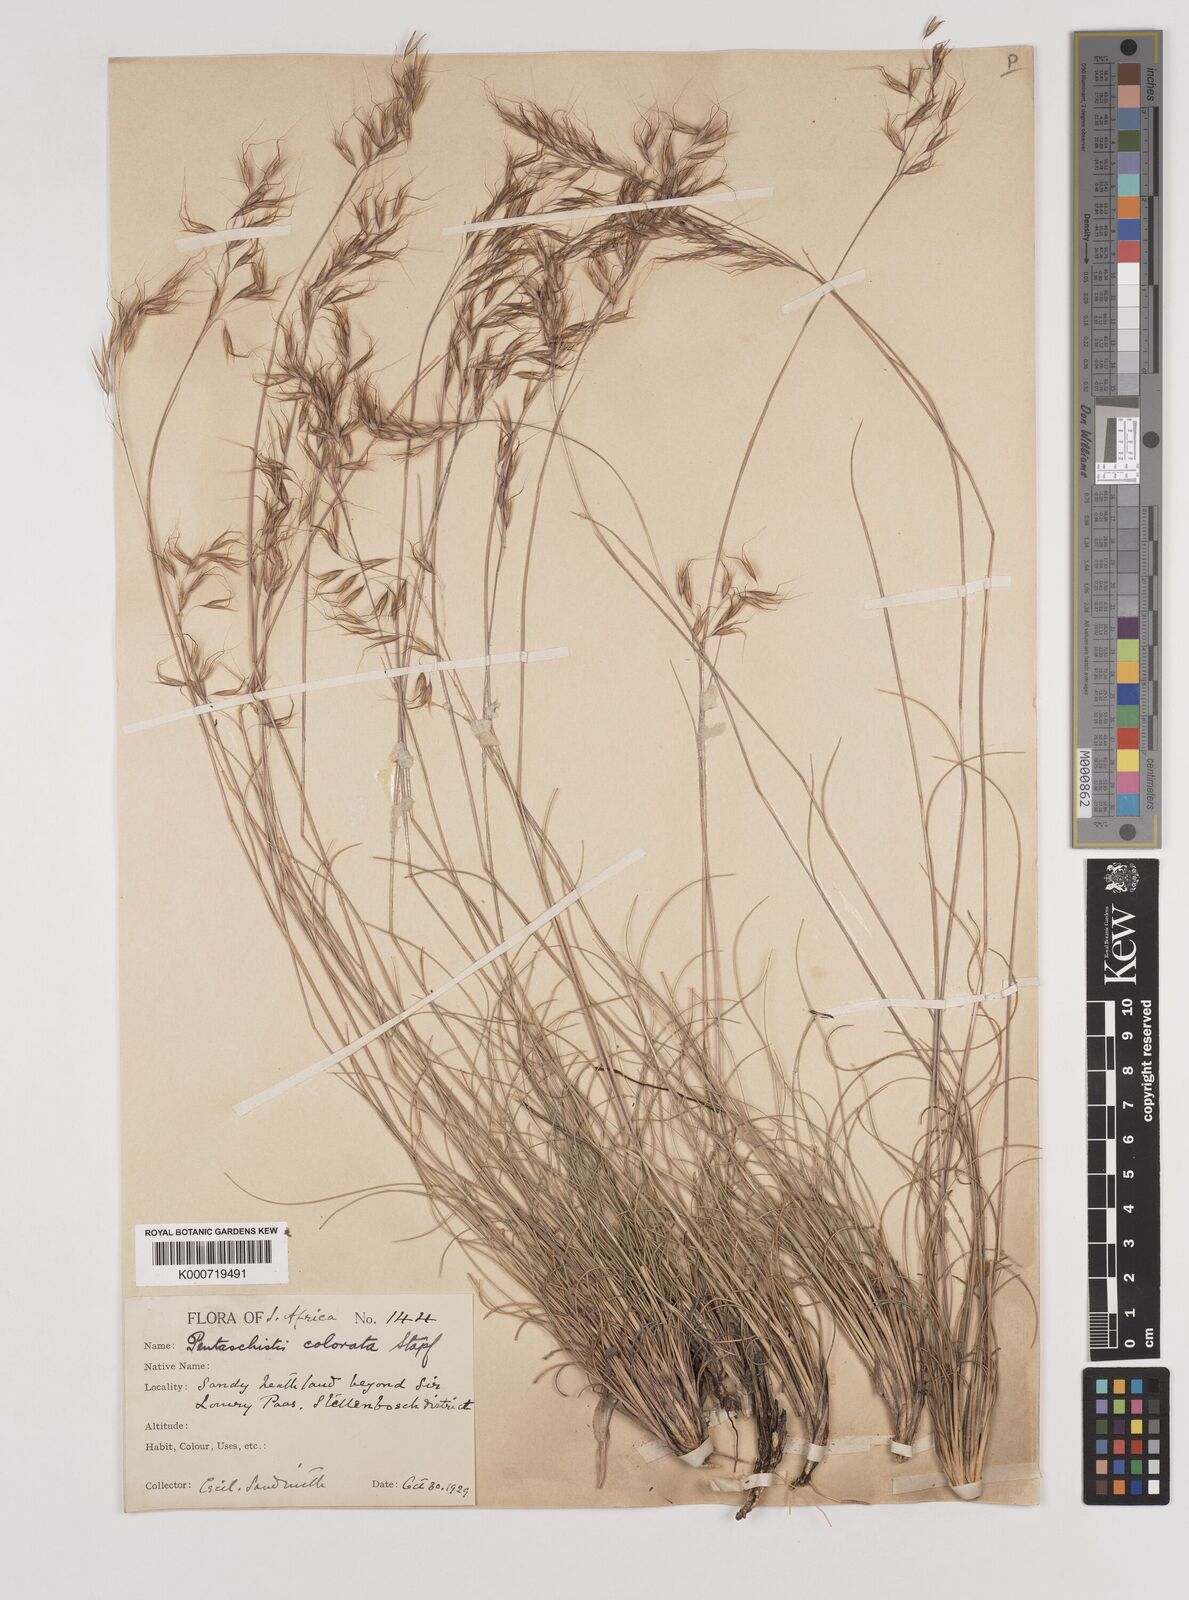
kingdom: Plantae
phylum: Tracheophyta
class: Liliopsida
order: Poales
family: Poaceae
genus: Pentameris
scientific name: Pentameris colorata
